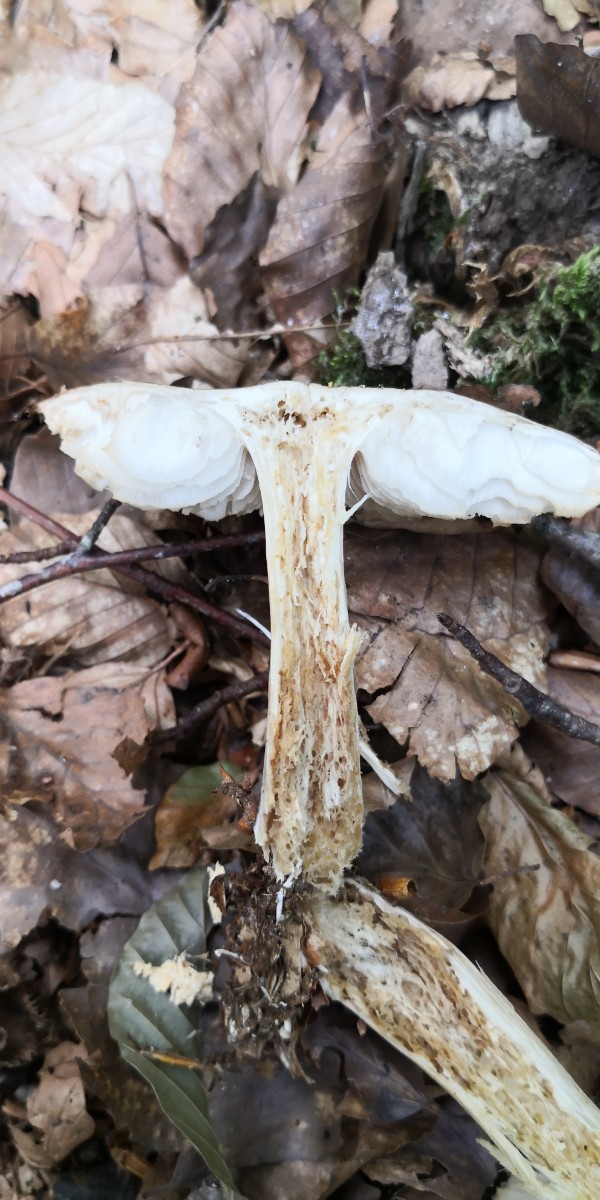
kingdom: Fungi
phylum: Basidiomycota
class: Agaricomycetes
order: Agaricales
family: Tricholomataceae
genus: Megacollybia
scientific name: Megacollybia platyphylla
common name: bredbladet væbnerhat
